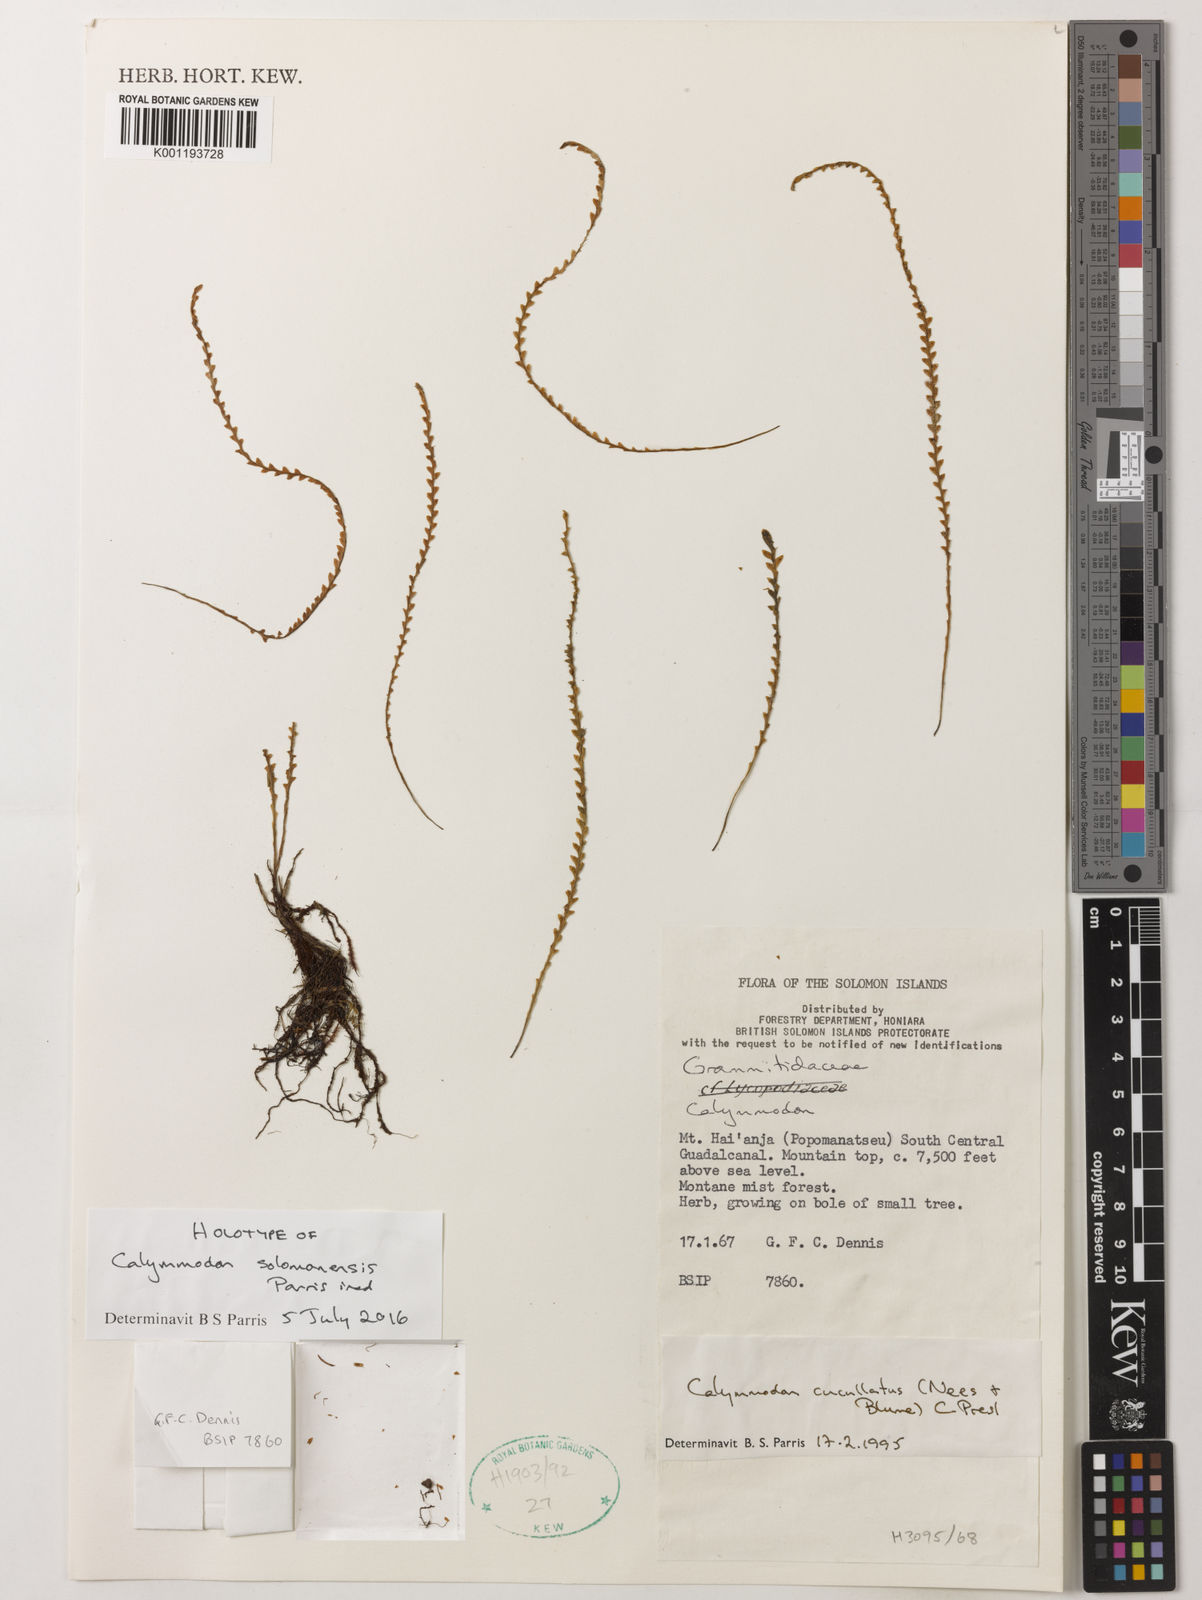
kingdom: Plantae
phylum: Tracheophyta
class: Polypodiopsida
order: Polypodiales
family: Polypodiaceae
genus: Calymmodon
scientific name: Calymmodon
